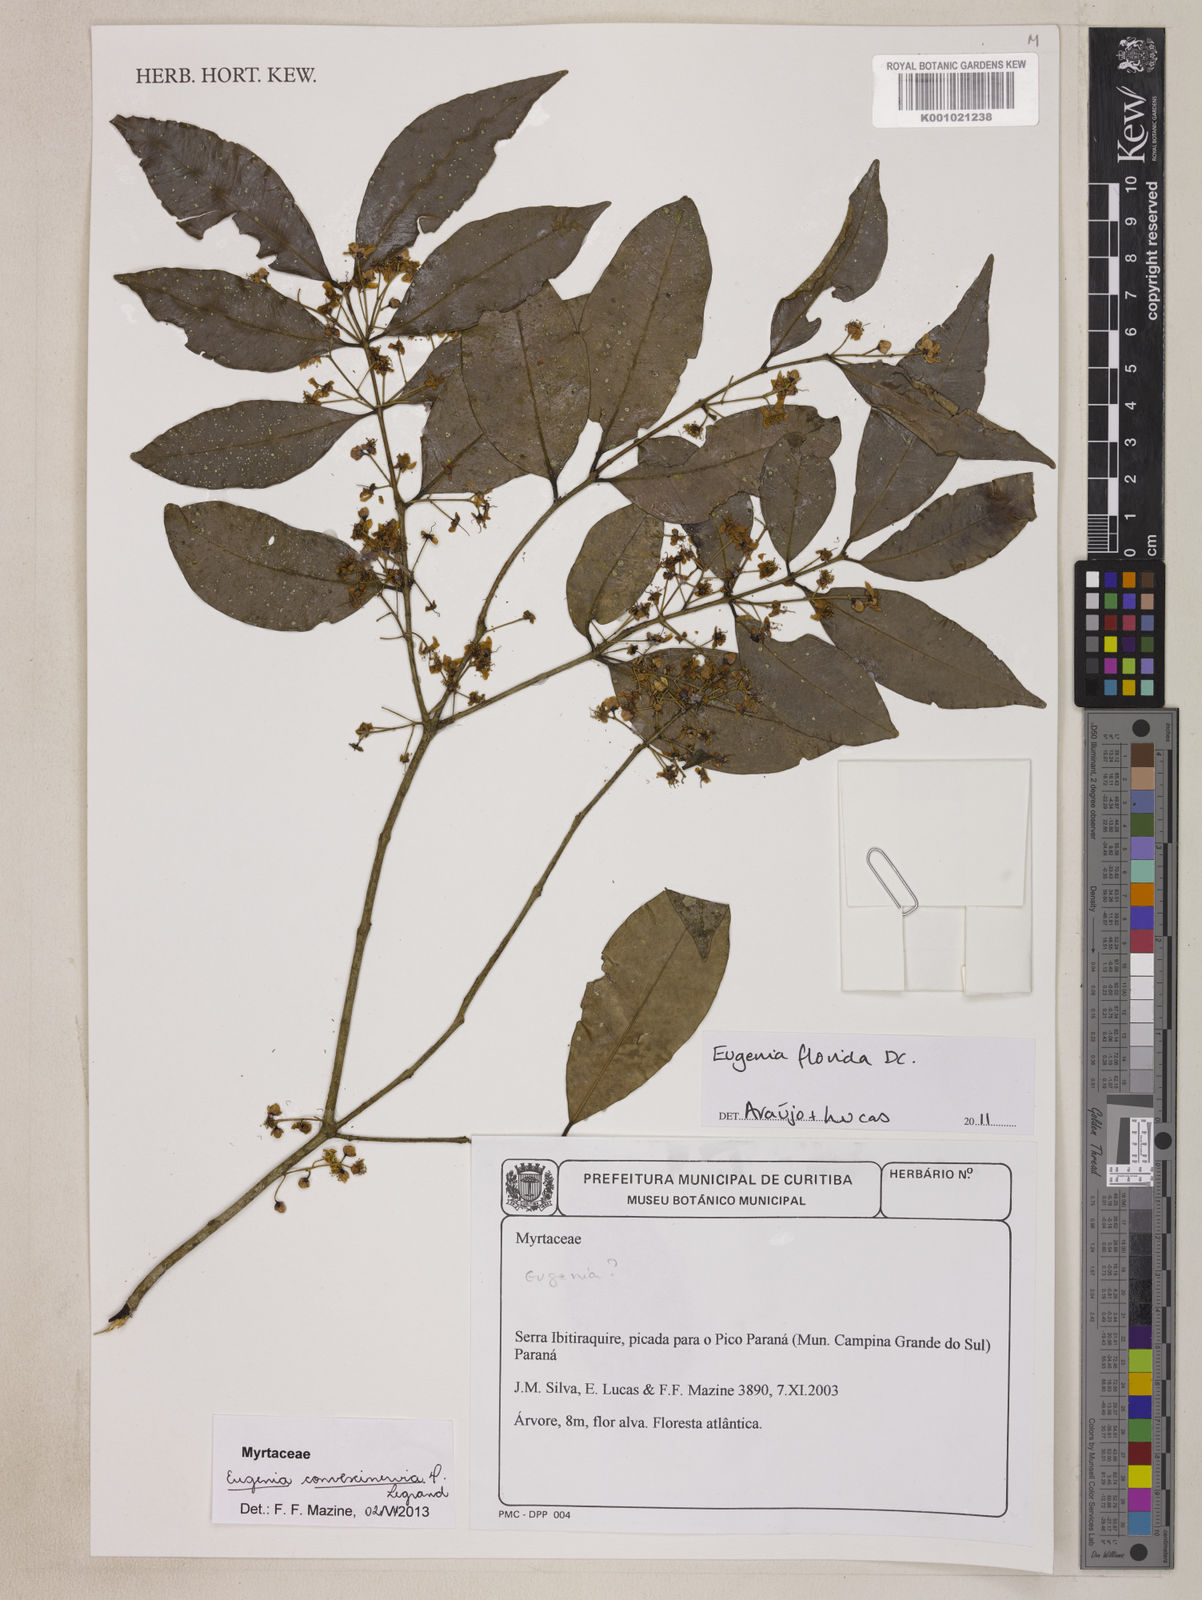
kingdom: Plantae
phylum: Tracheophyta
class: Magnoliopsida
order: Myrtales
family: Myrtaceae
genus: Eugenia
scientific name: Eugenia convexinervia
